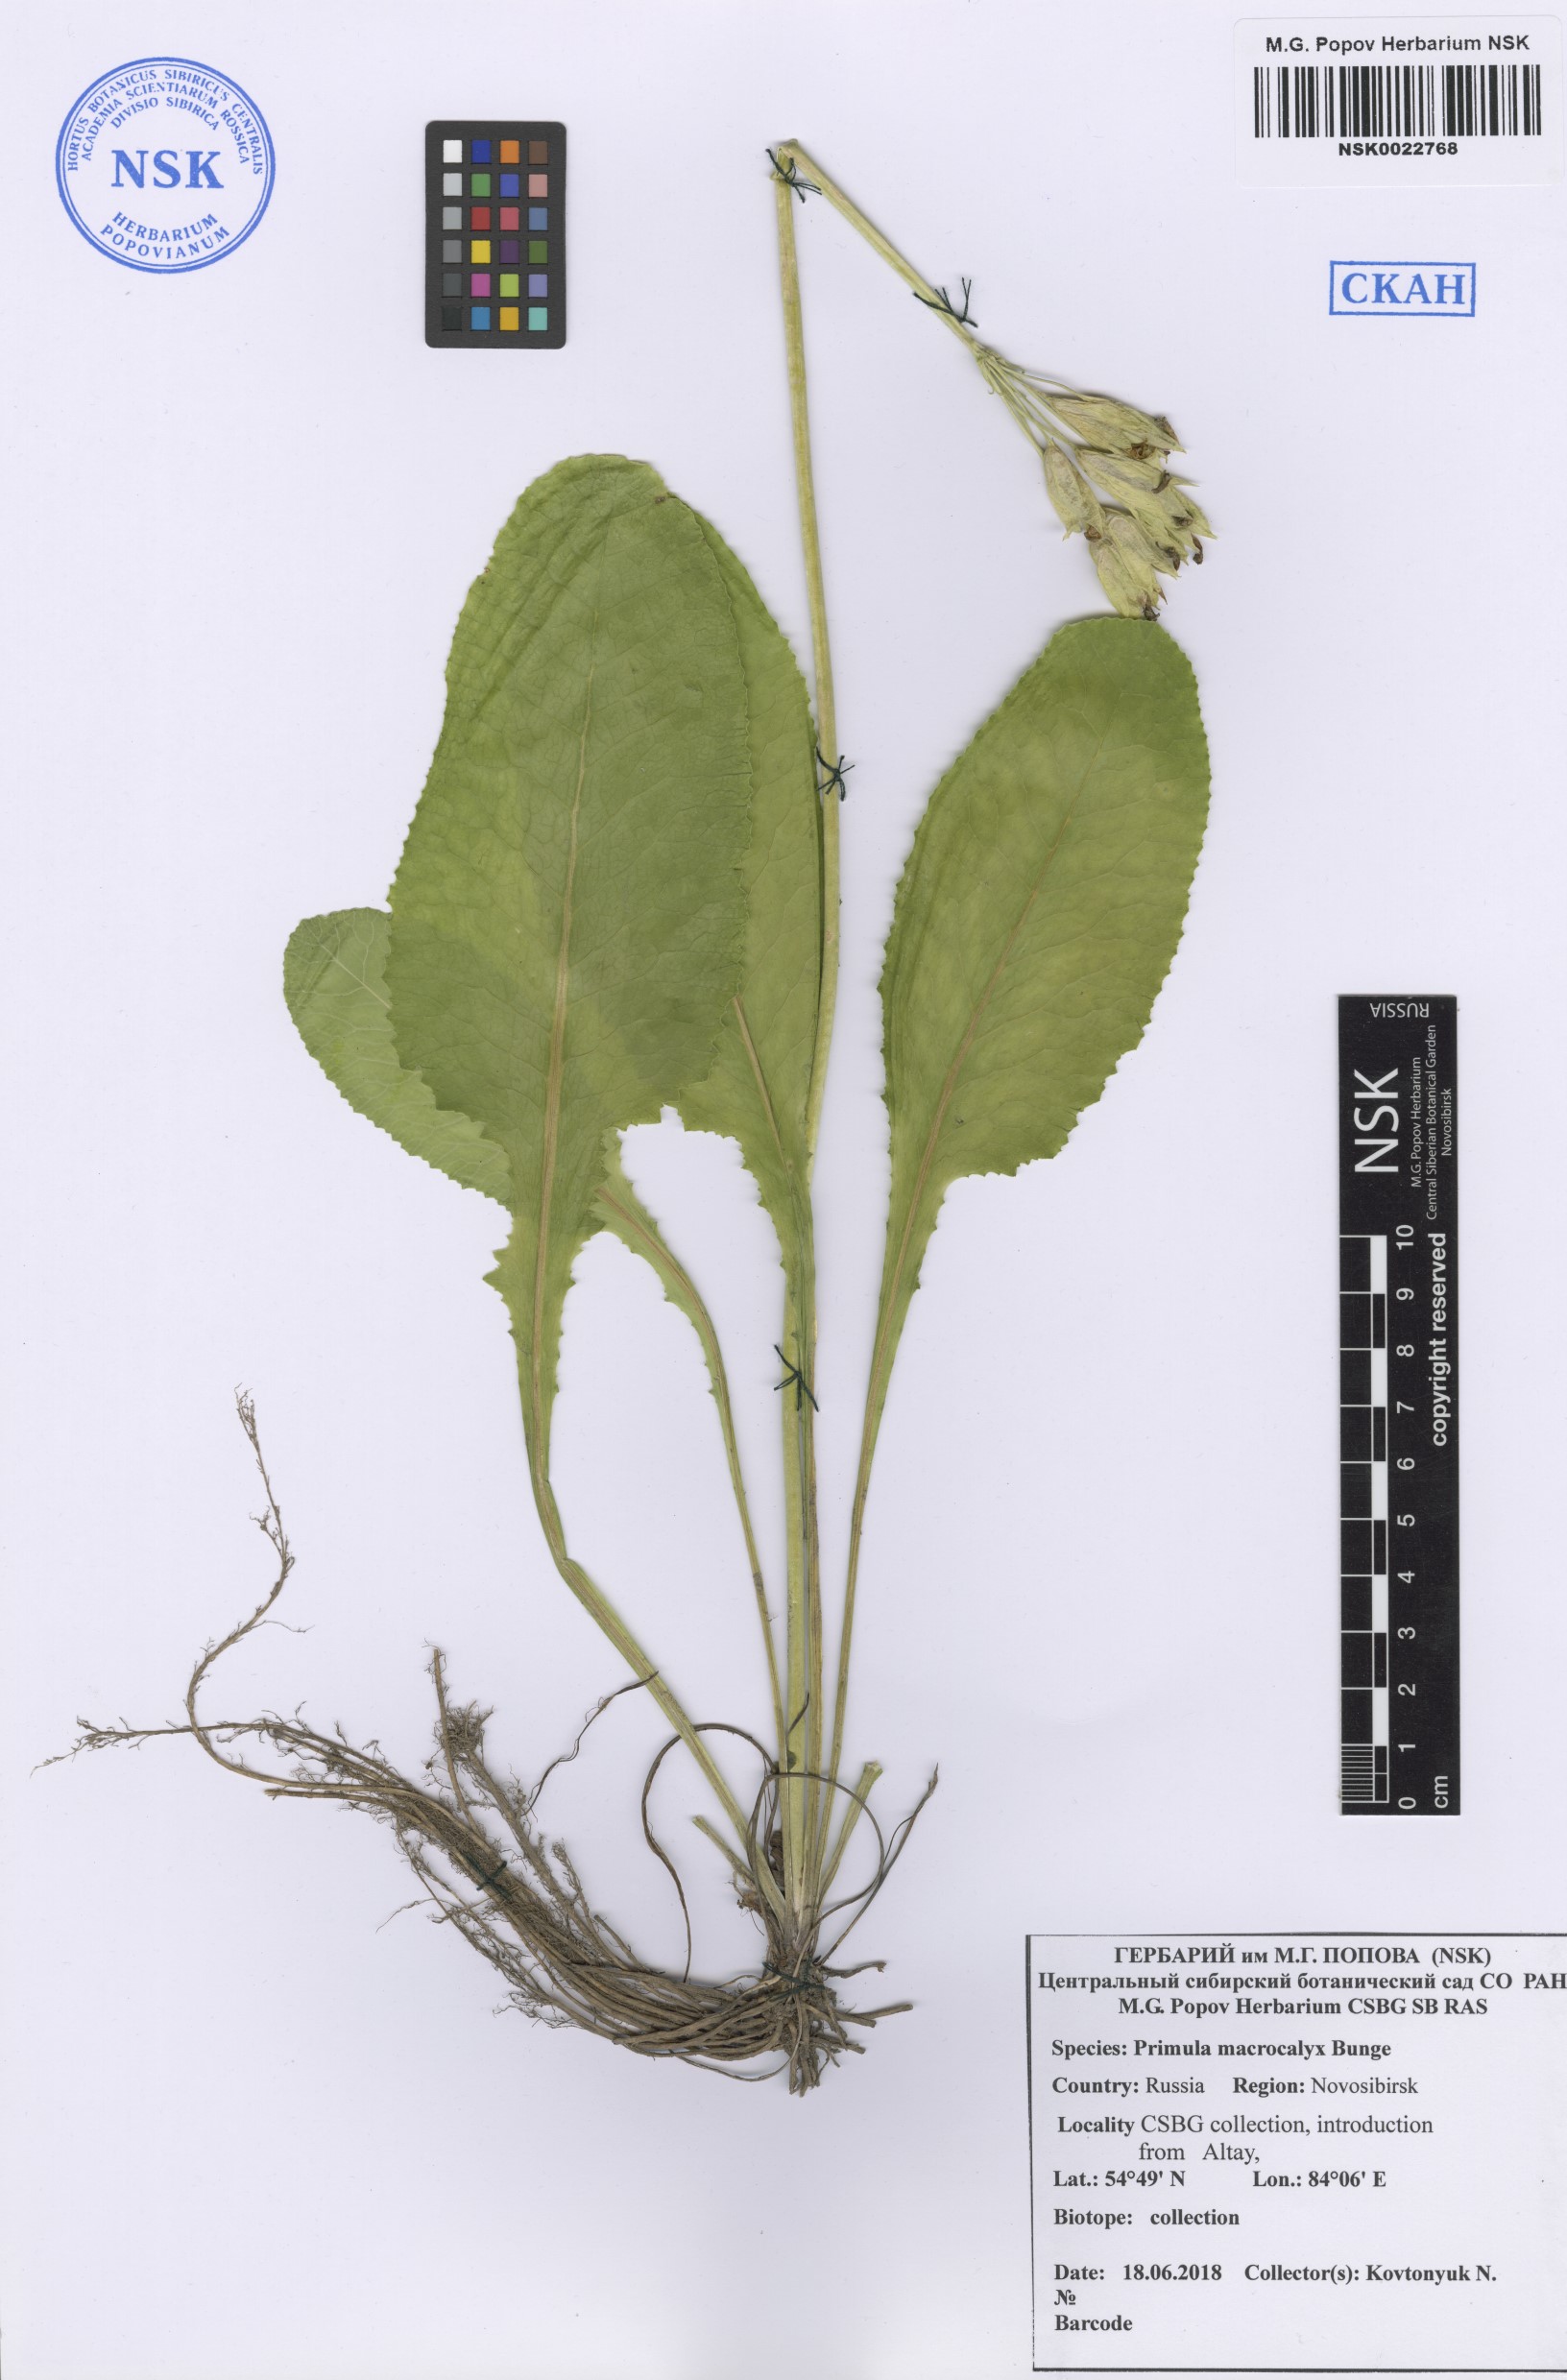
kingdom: Plantae
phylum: Tracheophyta
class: Magnoliopsida
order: Ericales
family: Primulaceae
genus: Primula
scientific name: Primula veris
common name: Cowslip
